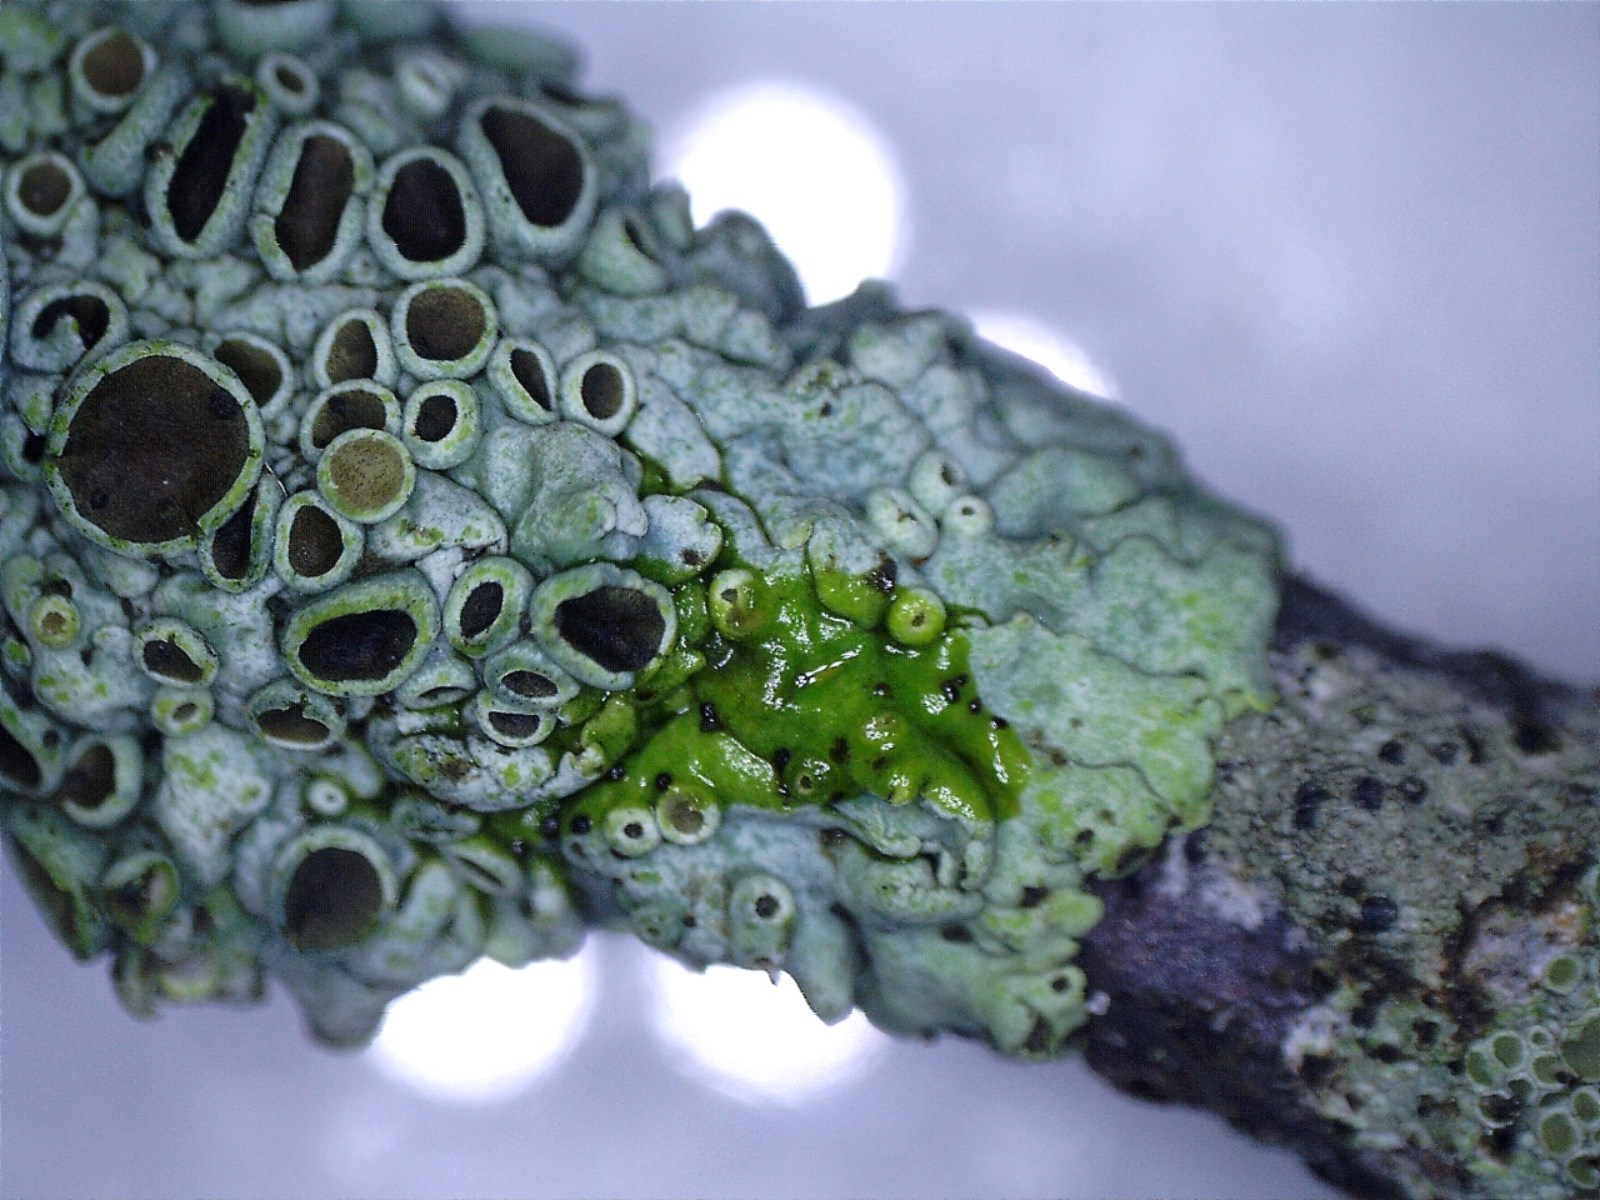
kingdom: Fungi
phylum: Ascomycota
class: Lecanoromycetes
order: Caliciales
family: Physciaceae
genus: Physcia
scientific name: Physcia aipolia
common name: hvidprikket rosetlav
